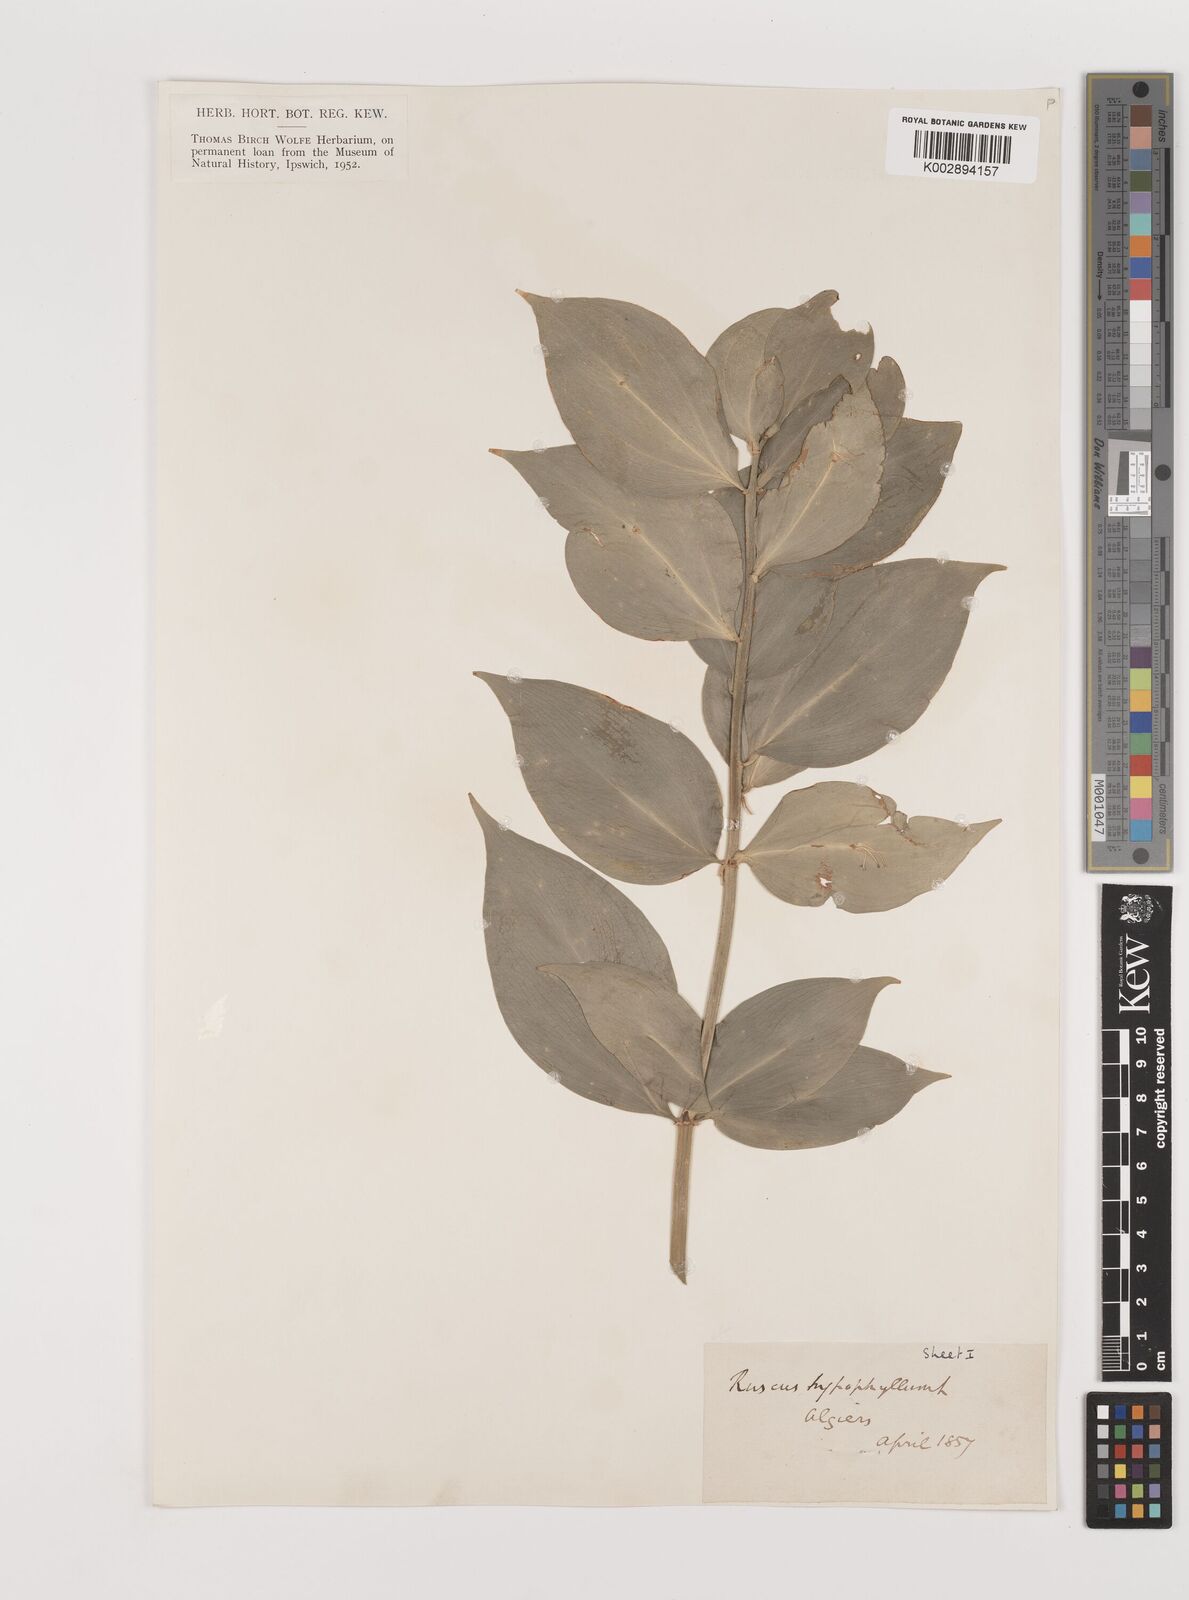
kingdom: Plantae
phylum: Tracheophyta
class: Liliopsida
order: Asparagales
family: Asparagaceae
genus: Ruscus
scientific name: Ruscus hypophyllum
